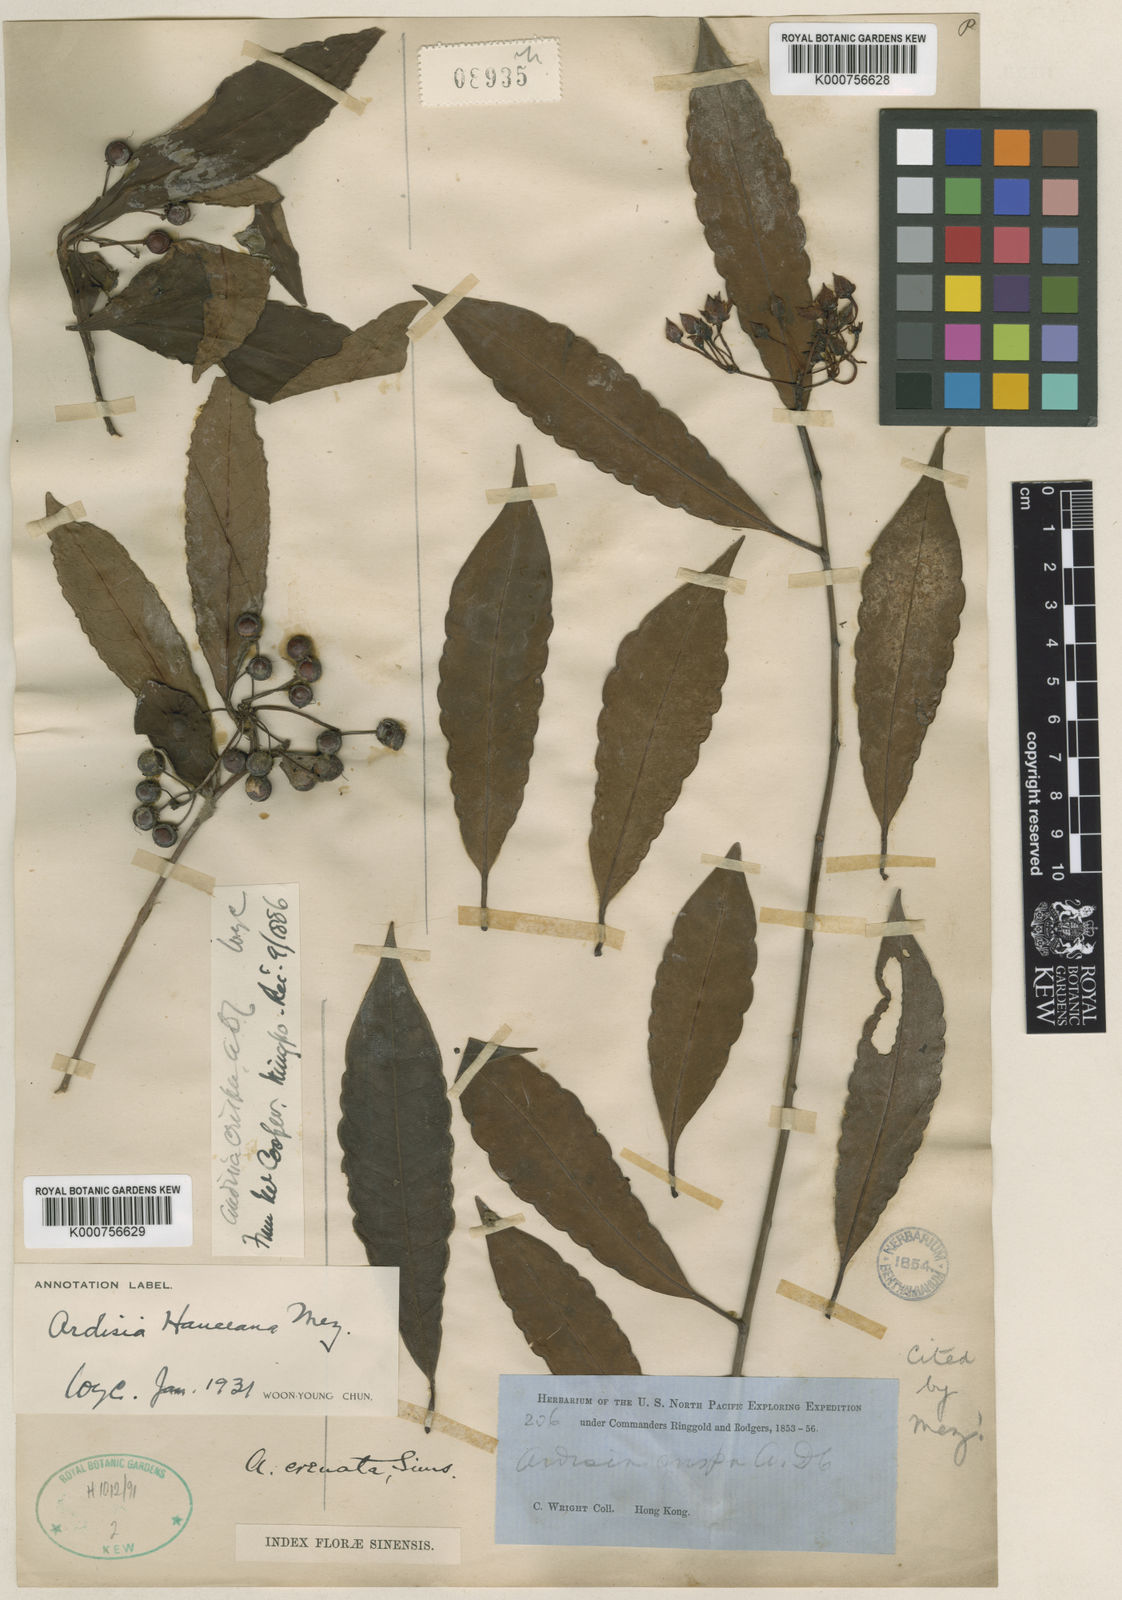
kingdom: Plantae
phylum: Tracheophyta
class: Magnoliopsida
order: Ericales
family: Primulaceae
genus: Ardisia
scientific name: Ardisia hanceana
